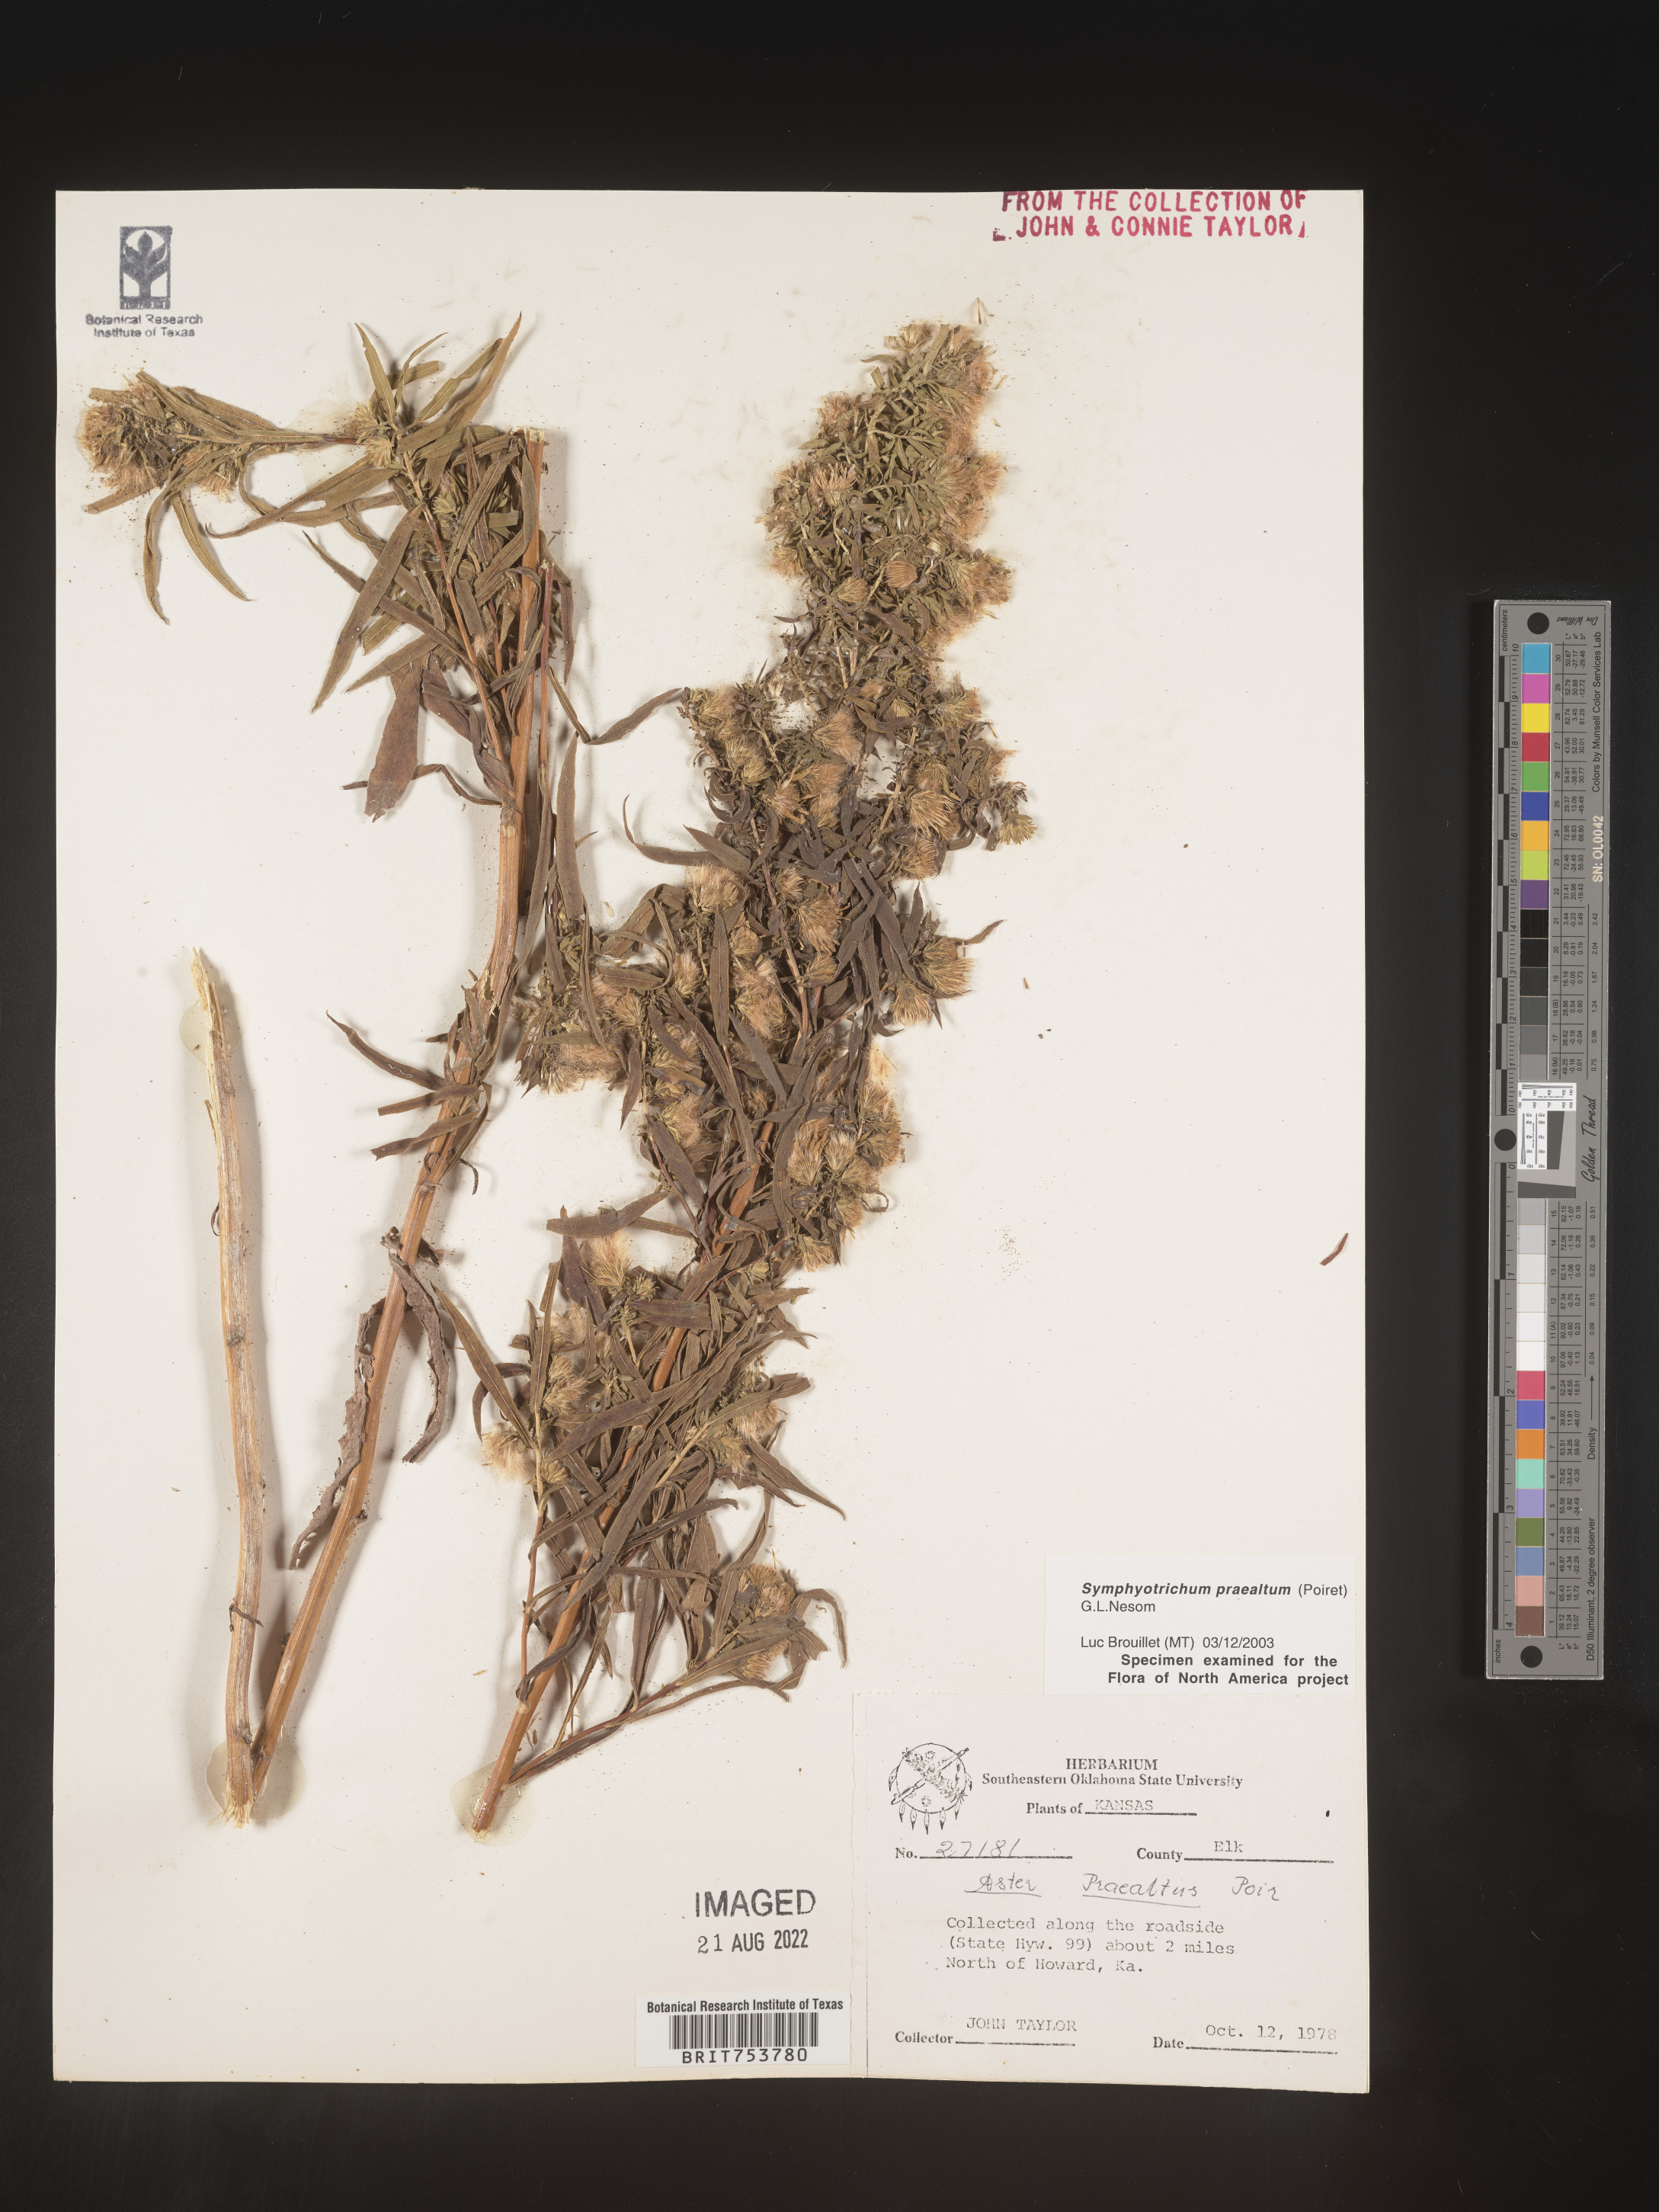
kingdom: Plantae
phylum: Tracheophyta
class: Magnoliopsida
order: Asterales
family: Asteraceae
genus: Symphyotrichum
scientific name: Symphyotrichum praealtum
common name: Willow aster
